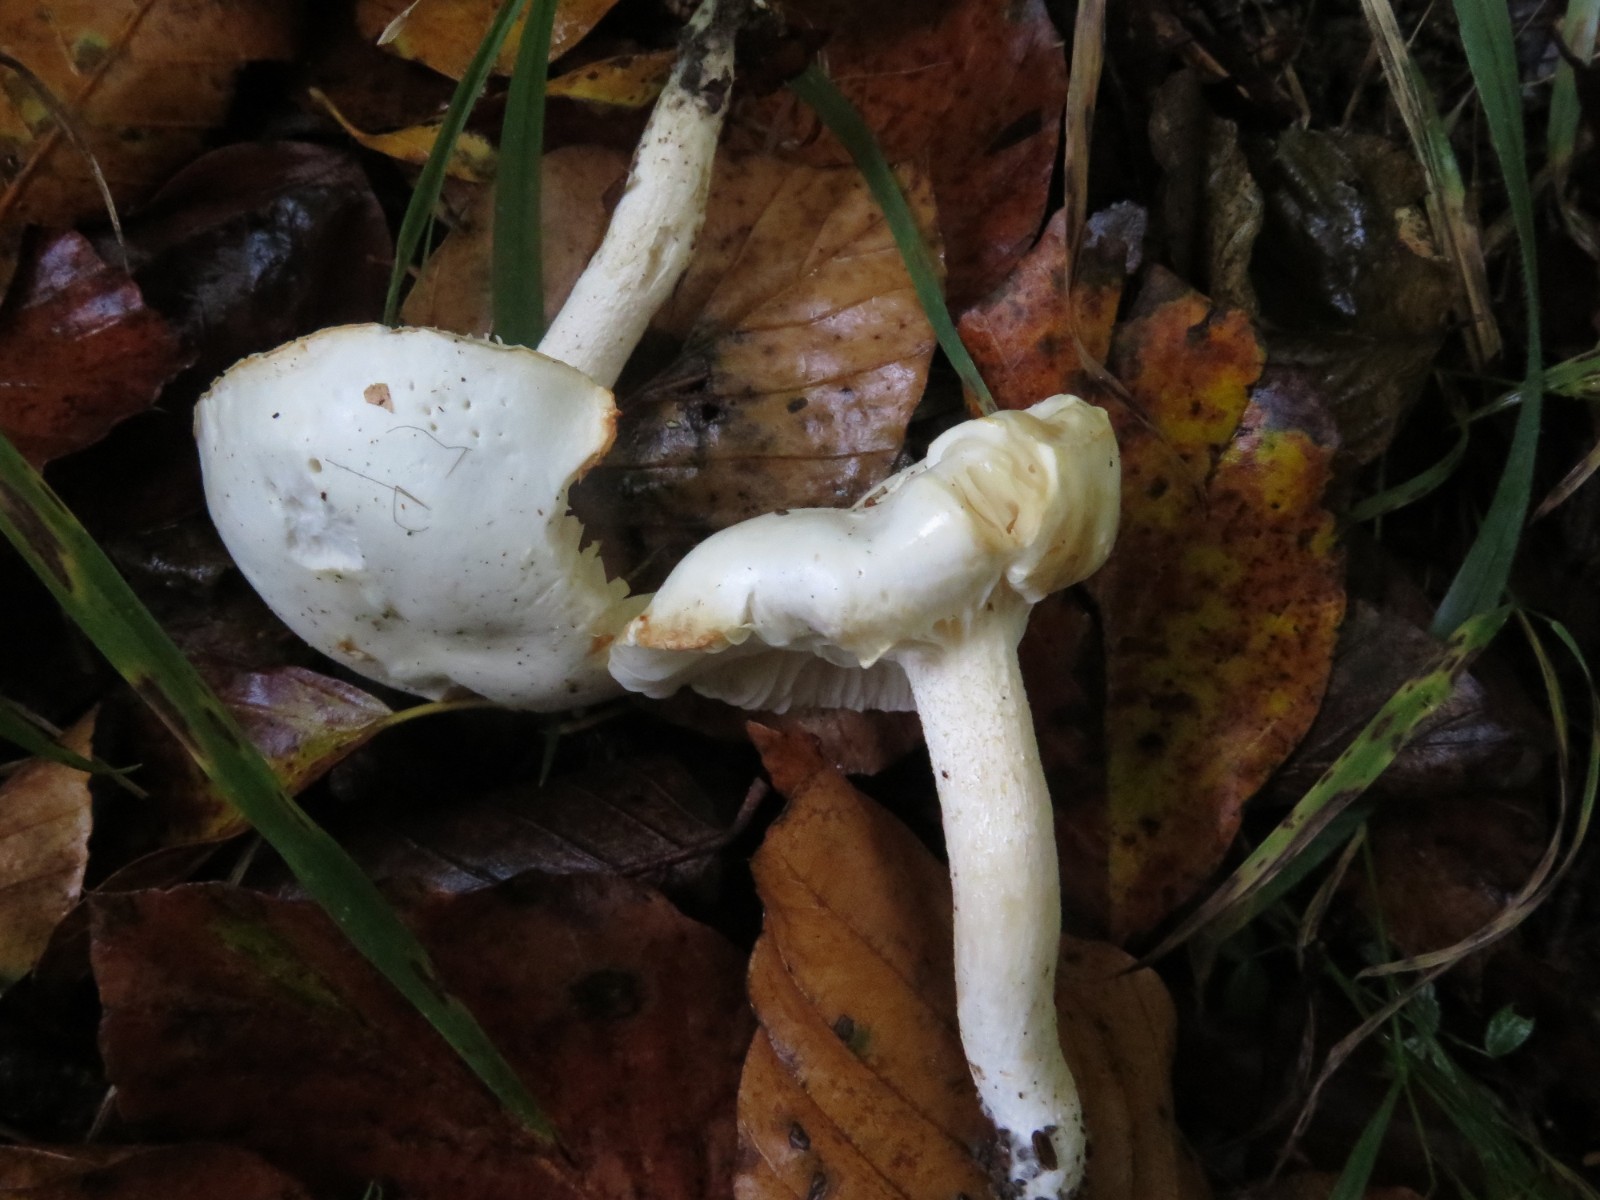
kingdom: Fungi
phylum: Basidiomycota
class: Agaricomycetes
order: Agaricales
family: Hygrophoraceae
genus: Hygrophorus
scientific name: Hygrophorus discoxanthus
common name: ildelugtende sneglehat
